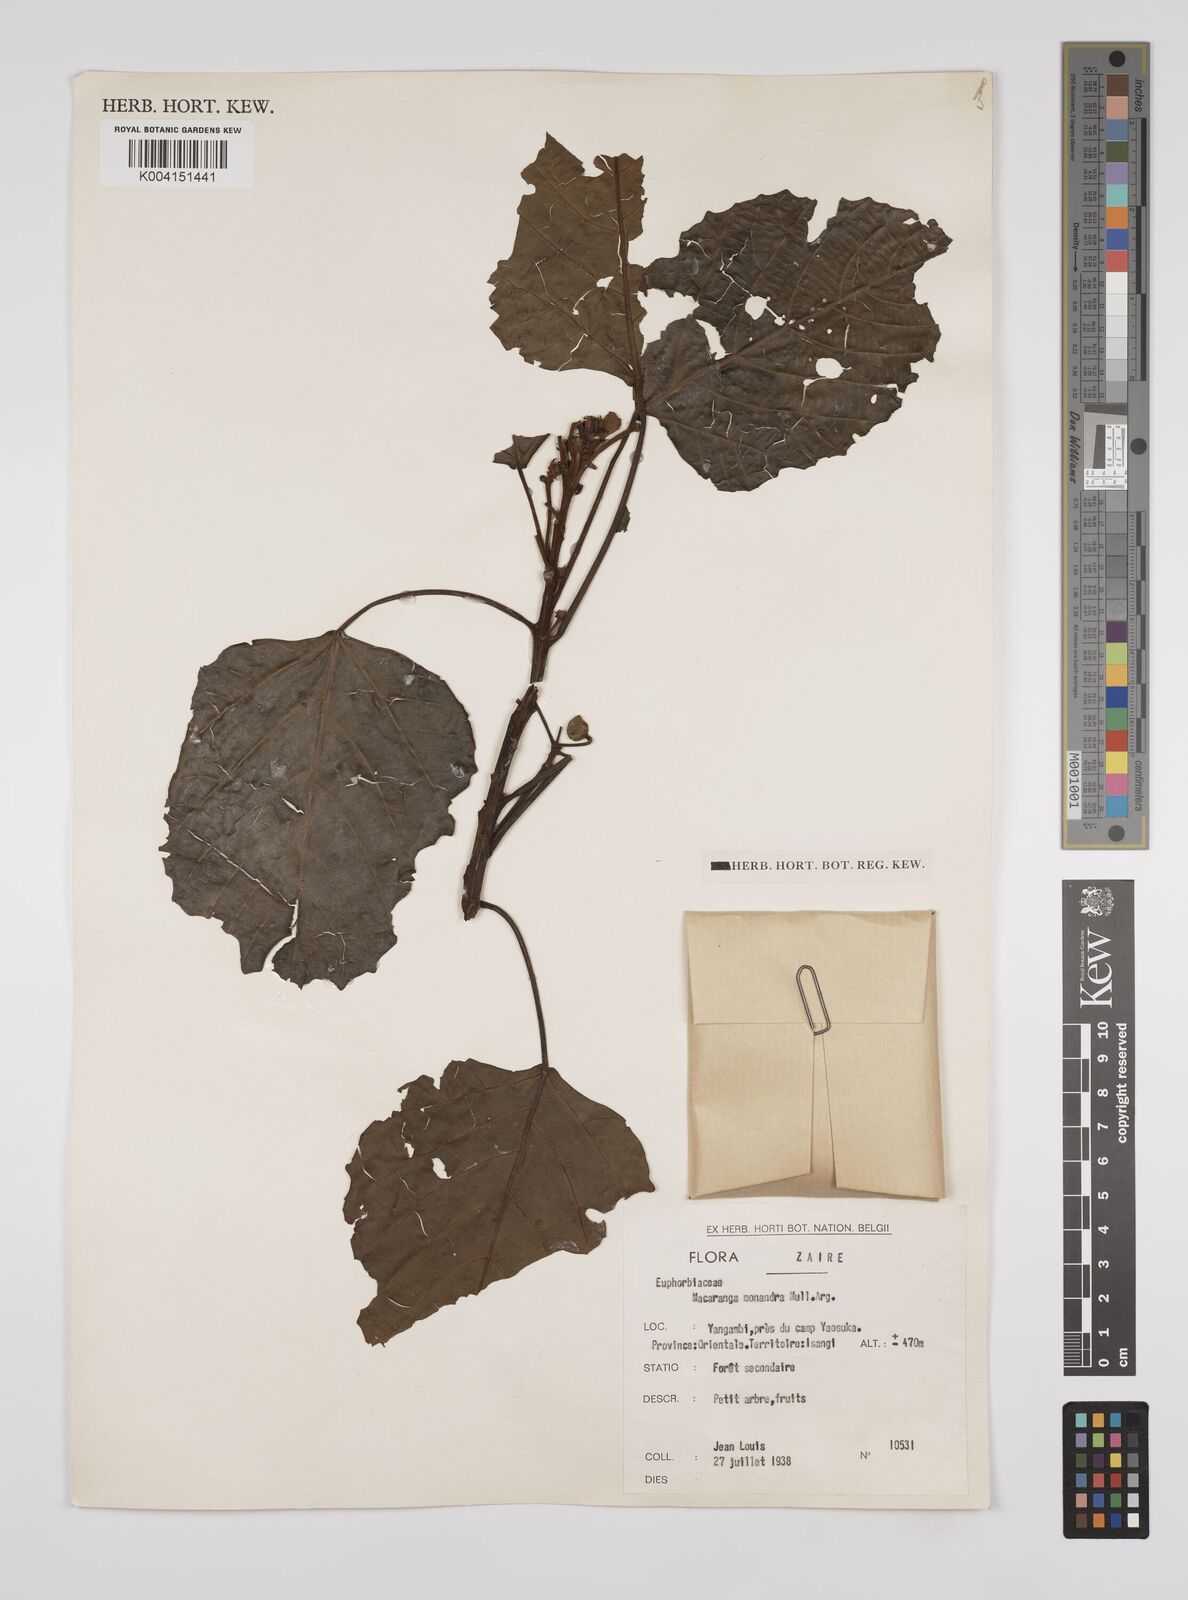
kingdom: Plantae
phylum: Tracheophyta
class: Magnoliopsida
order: Malpighiales
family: Euphorbiaceae
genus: Macaranga
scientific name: Macaranga monandra
